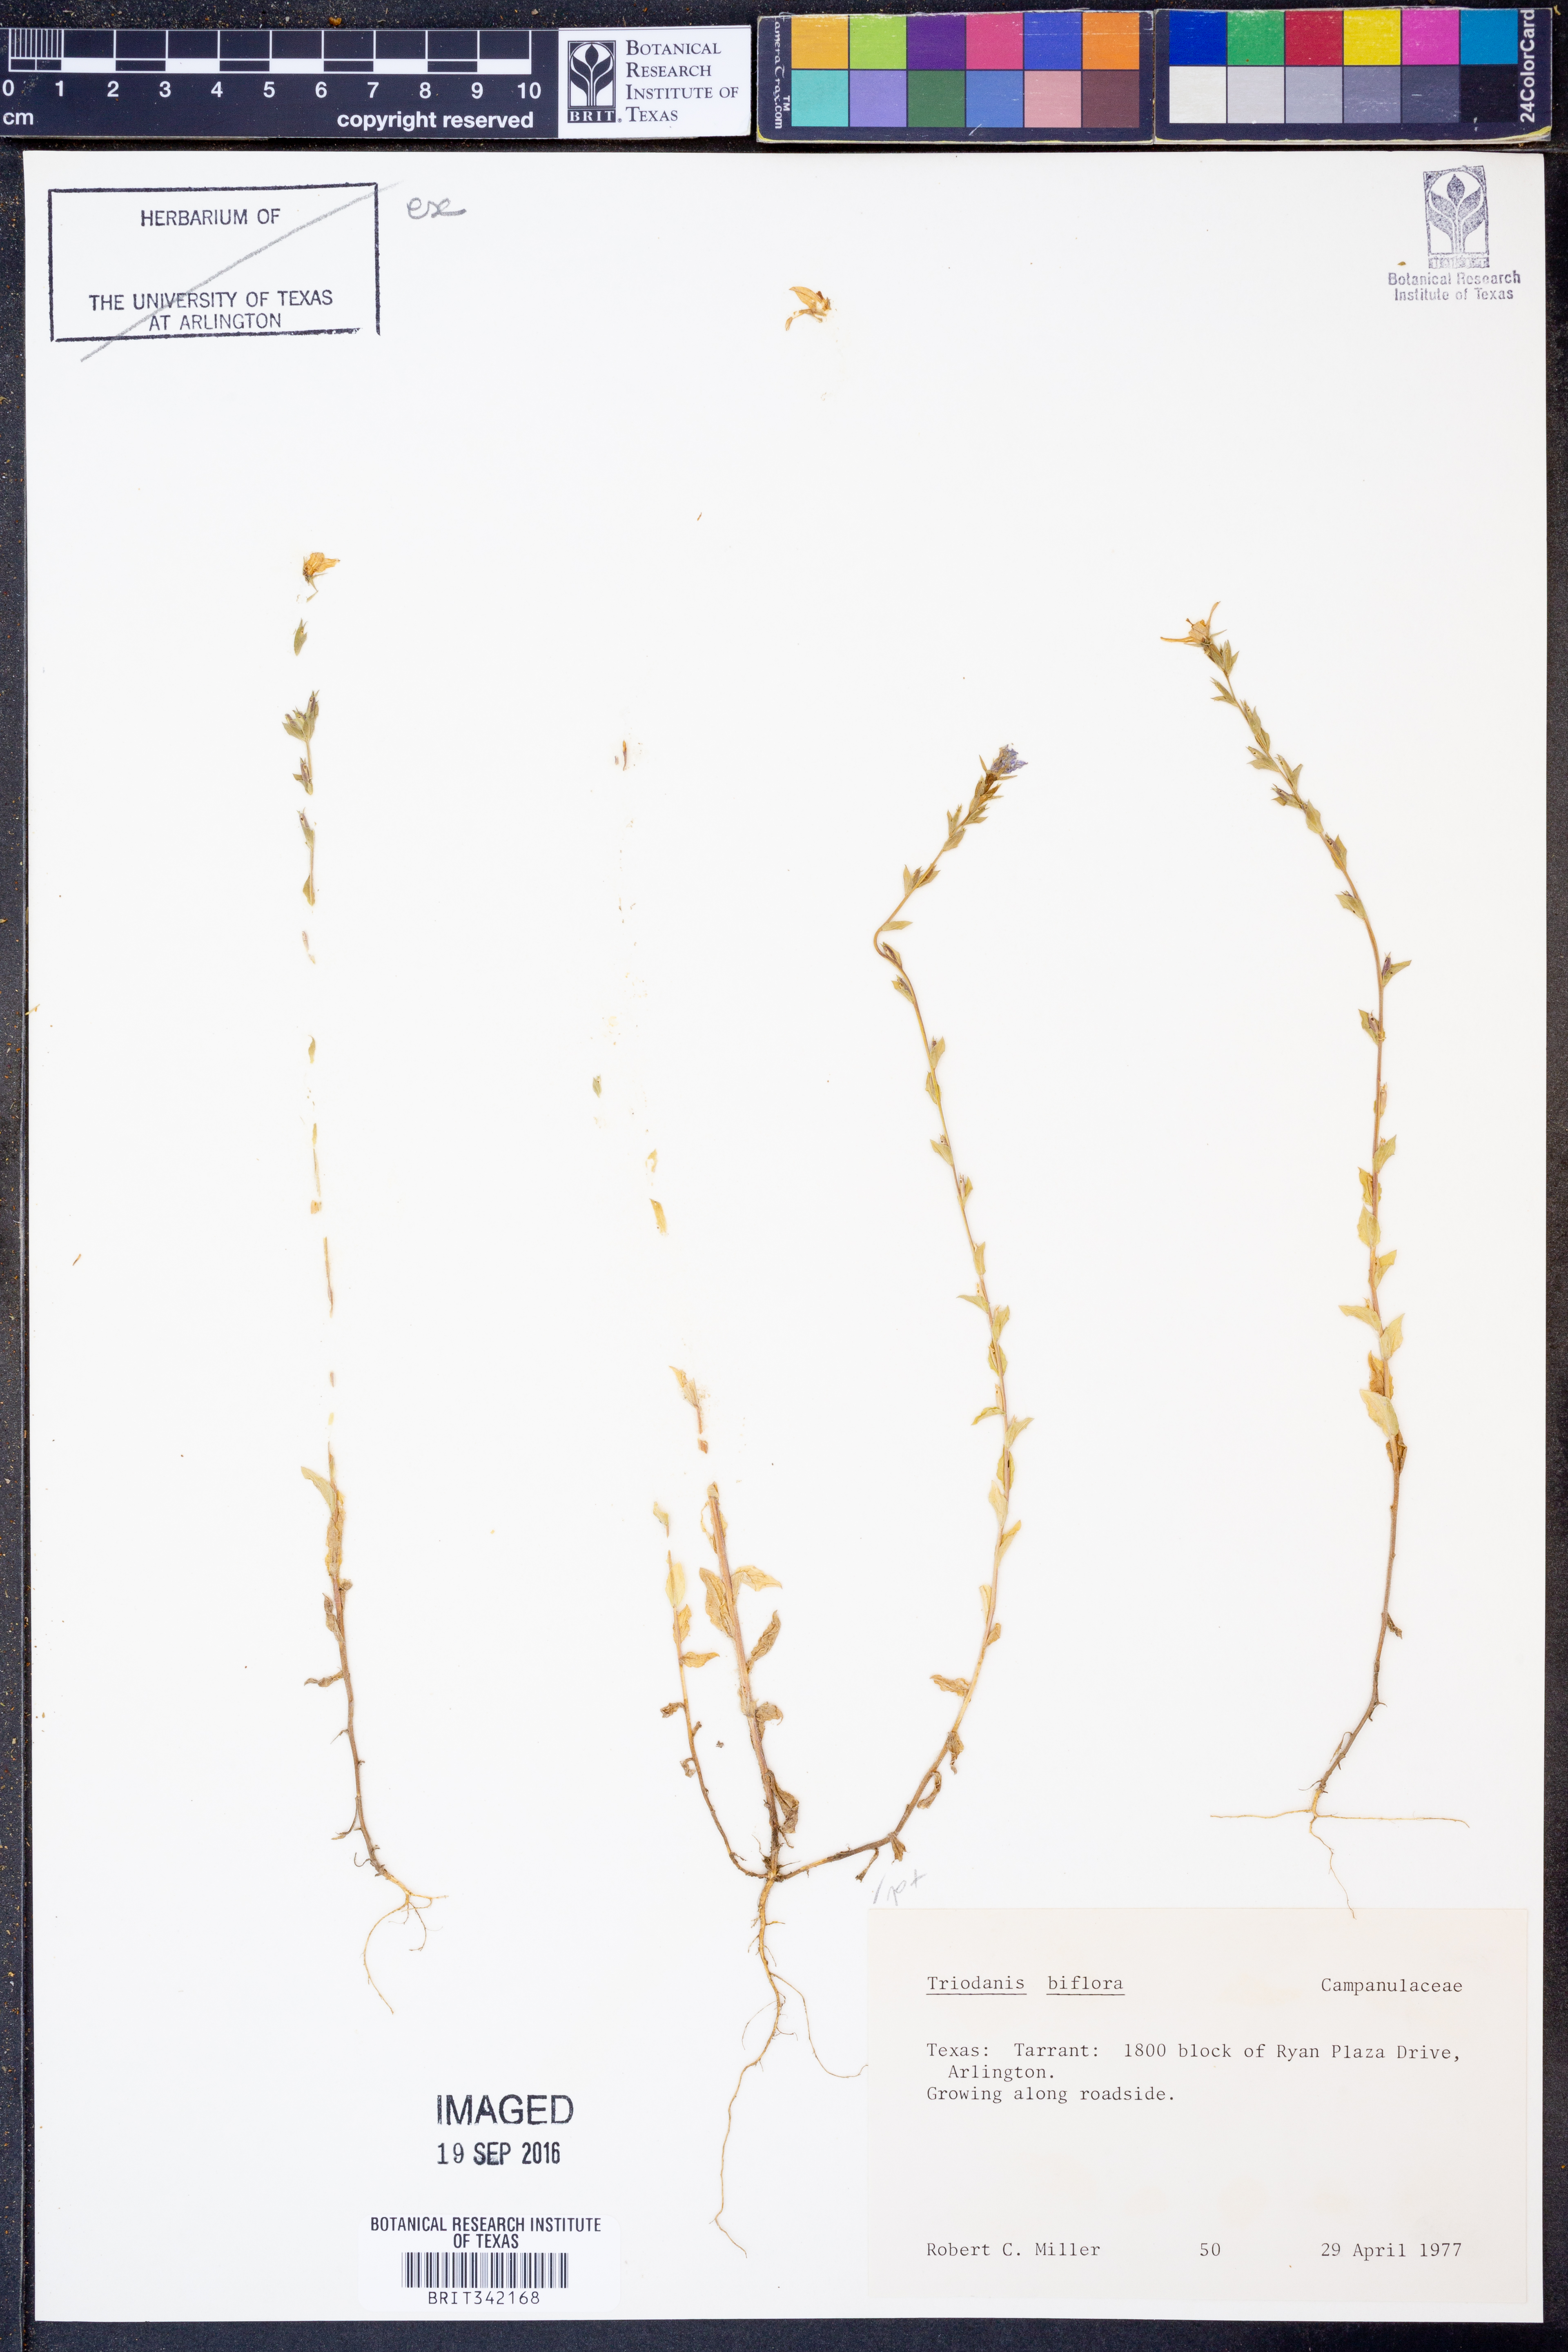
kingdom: Plantae
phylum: Tracheophyta
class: Magnoliopsida
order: Asterales
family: Campanulaceae
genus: Triodanis
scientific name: Triodanis perfoliata
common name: Clasping venus' looking-glass
